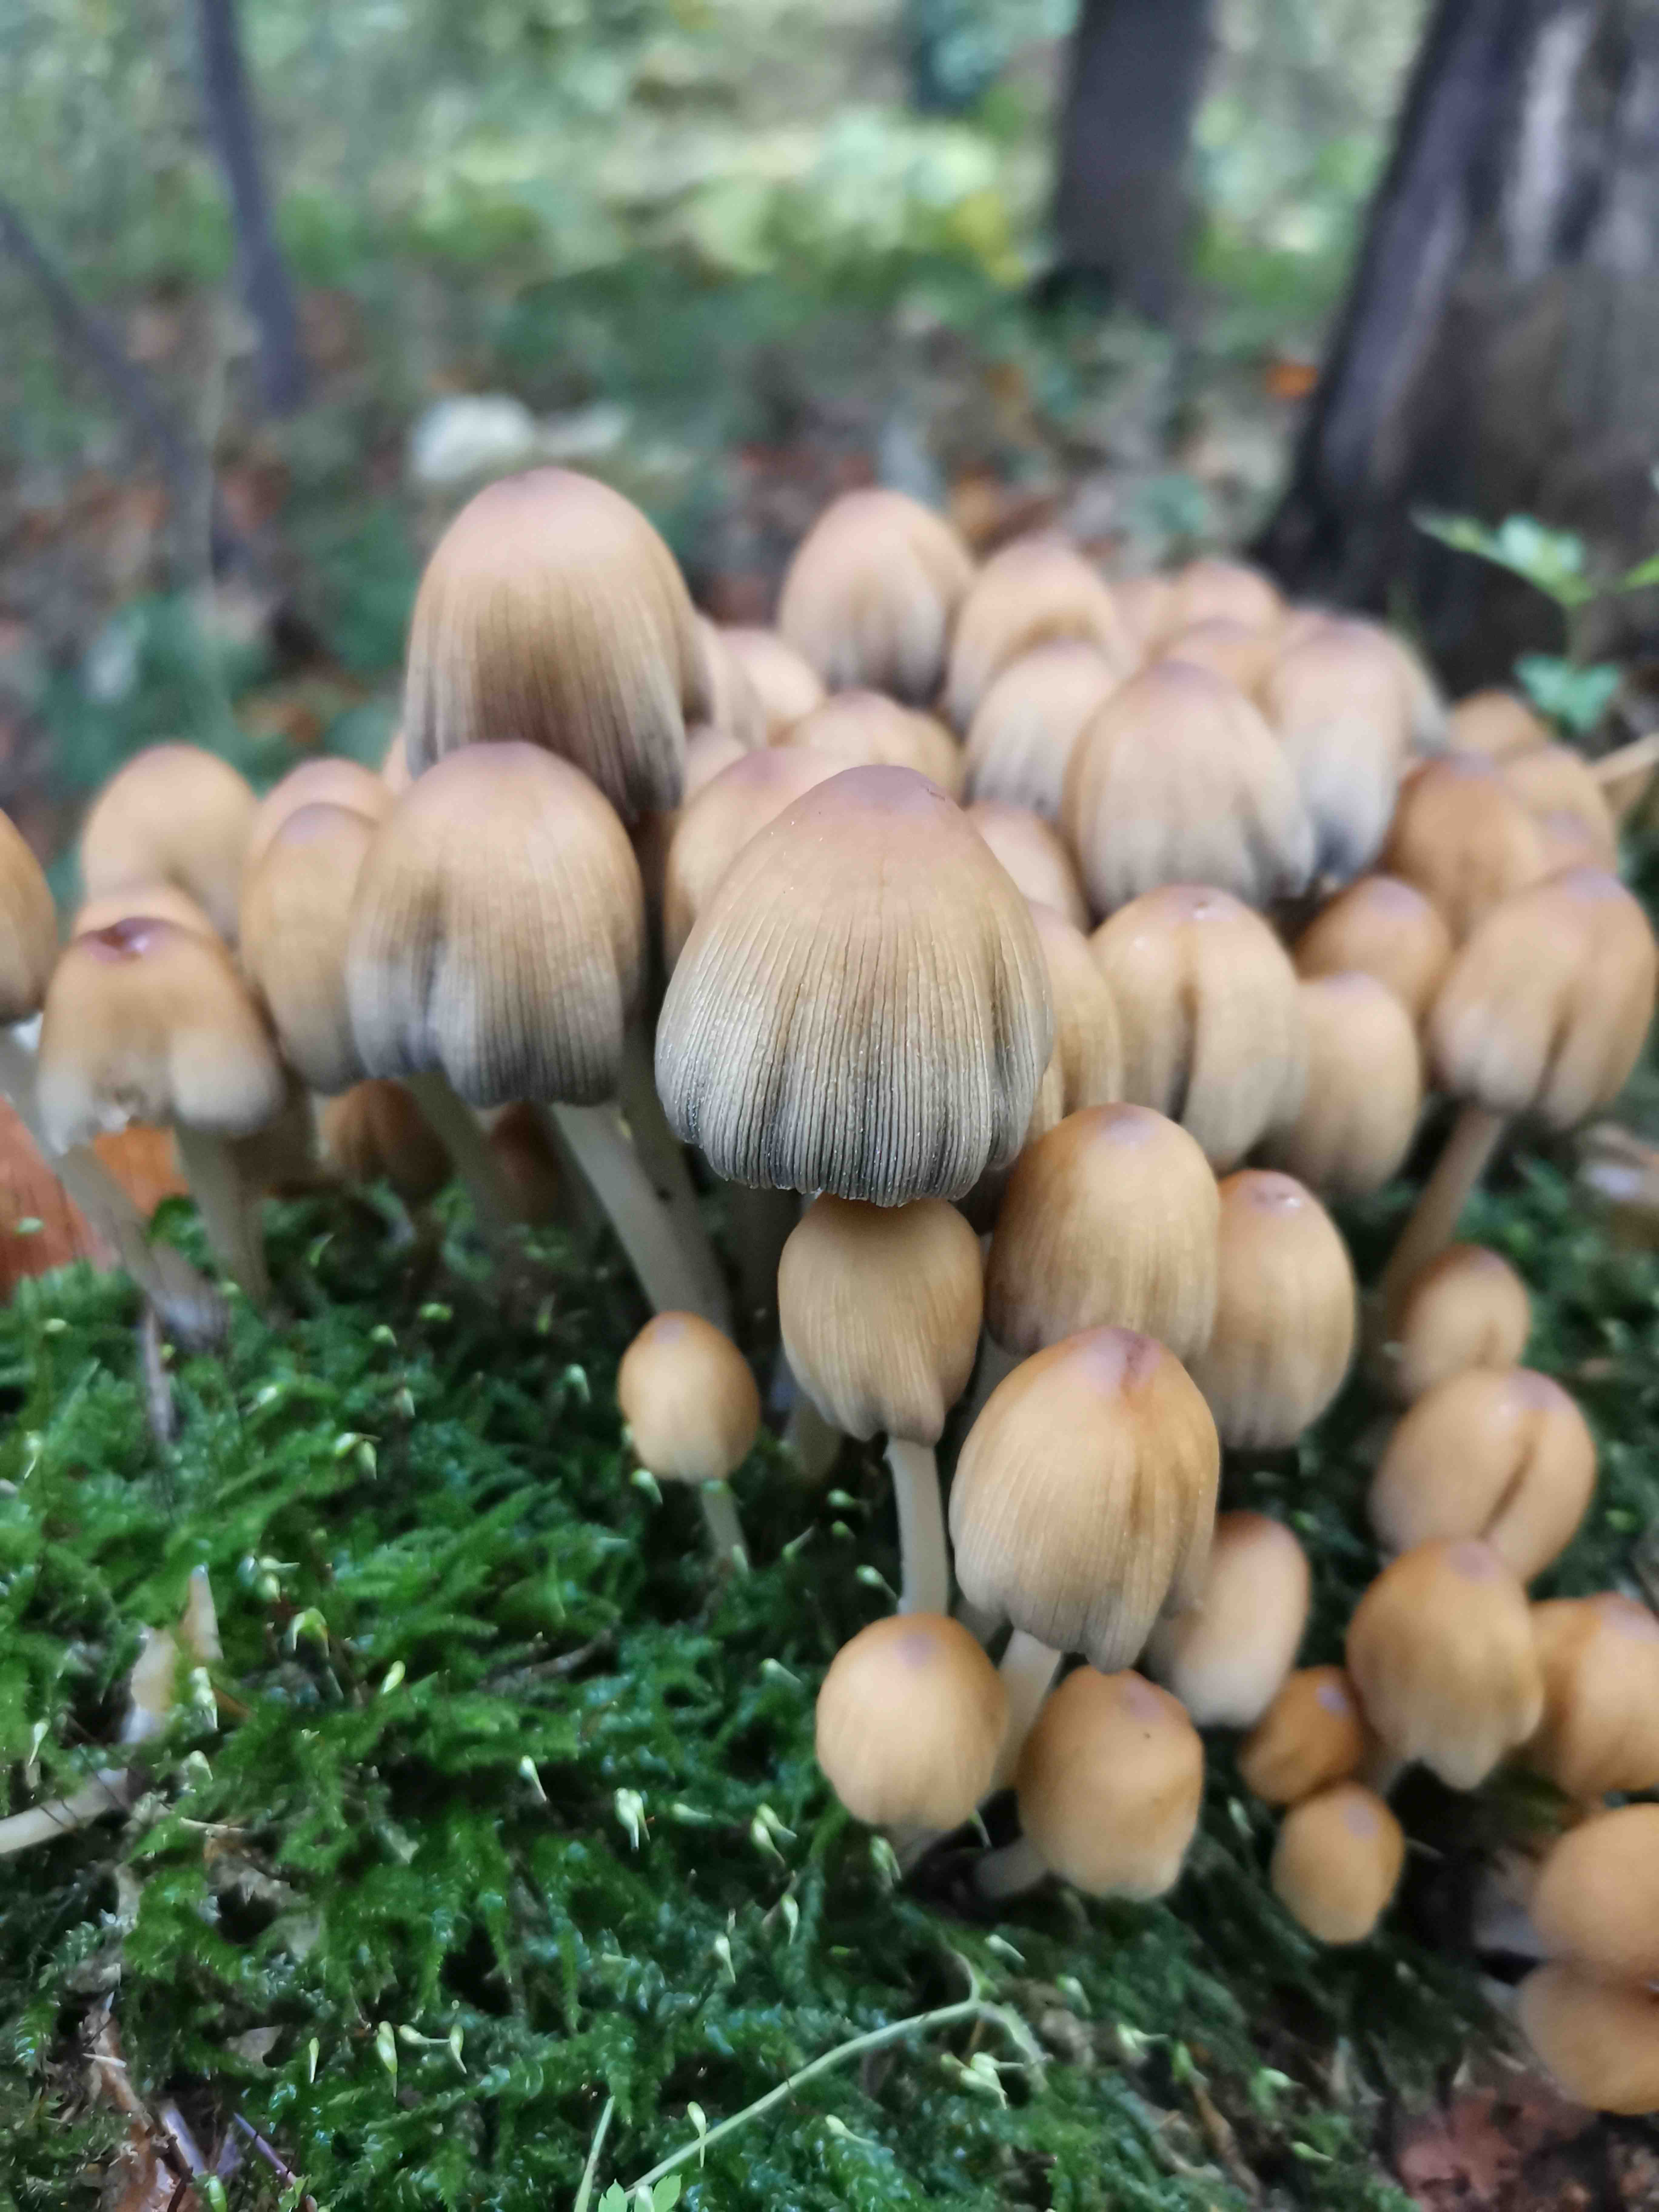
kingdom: Fungi
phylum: Basidiomycota
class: Agaricomycetes
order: Agaricales
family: Psathyrellaceae
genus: Coprinellus
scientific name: Coprinellus micaceus
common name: glimmer-blækhat
